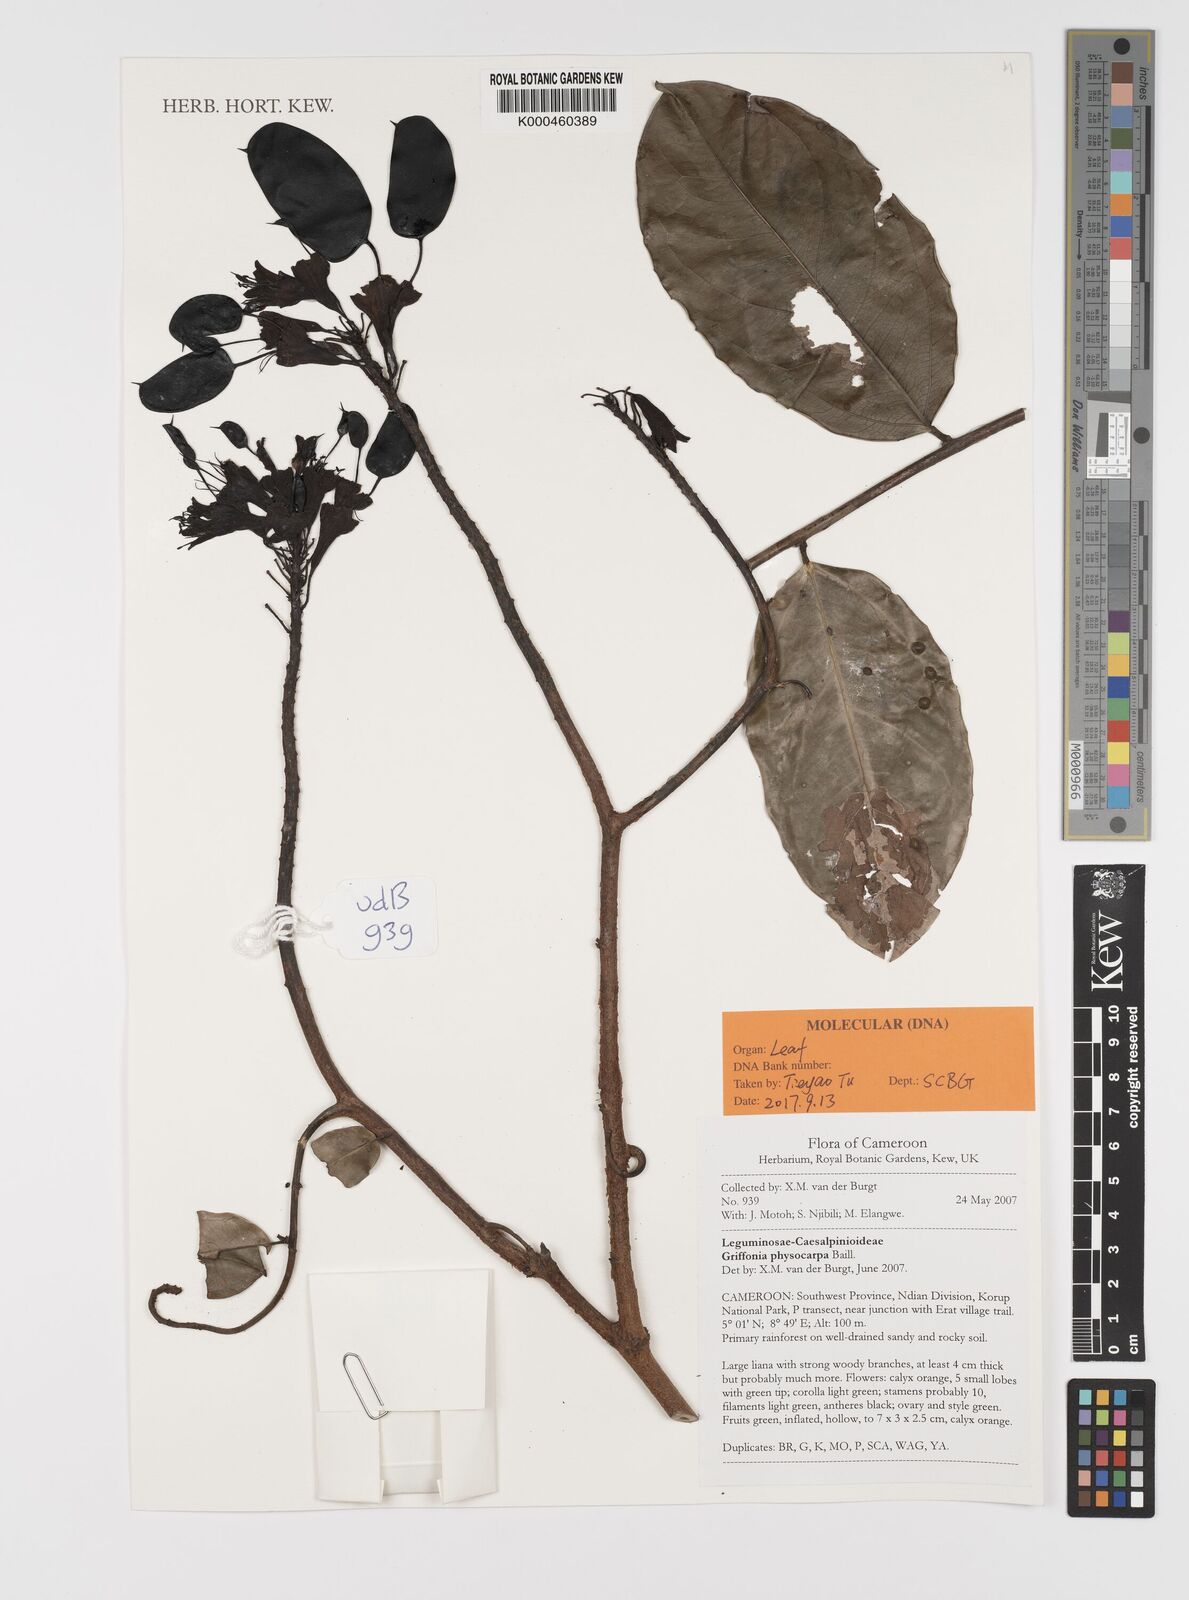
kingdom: Plantae
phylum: Tracheophyta
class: Magnoliopsida
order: Fabales
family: Fabaceae
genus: Griffonia
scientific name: Griffonia physocarpa
